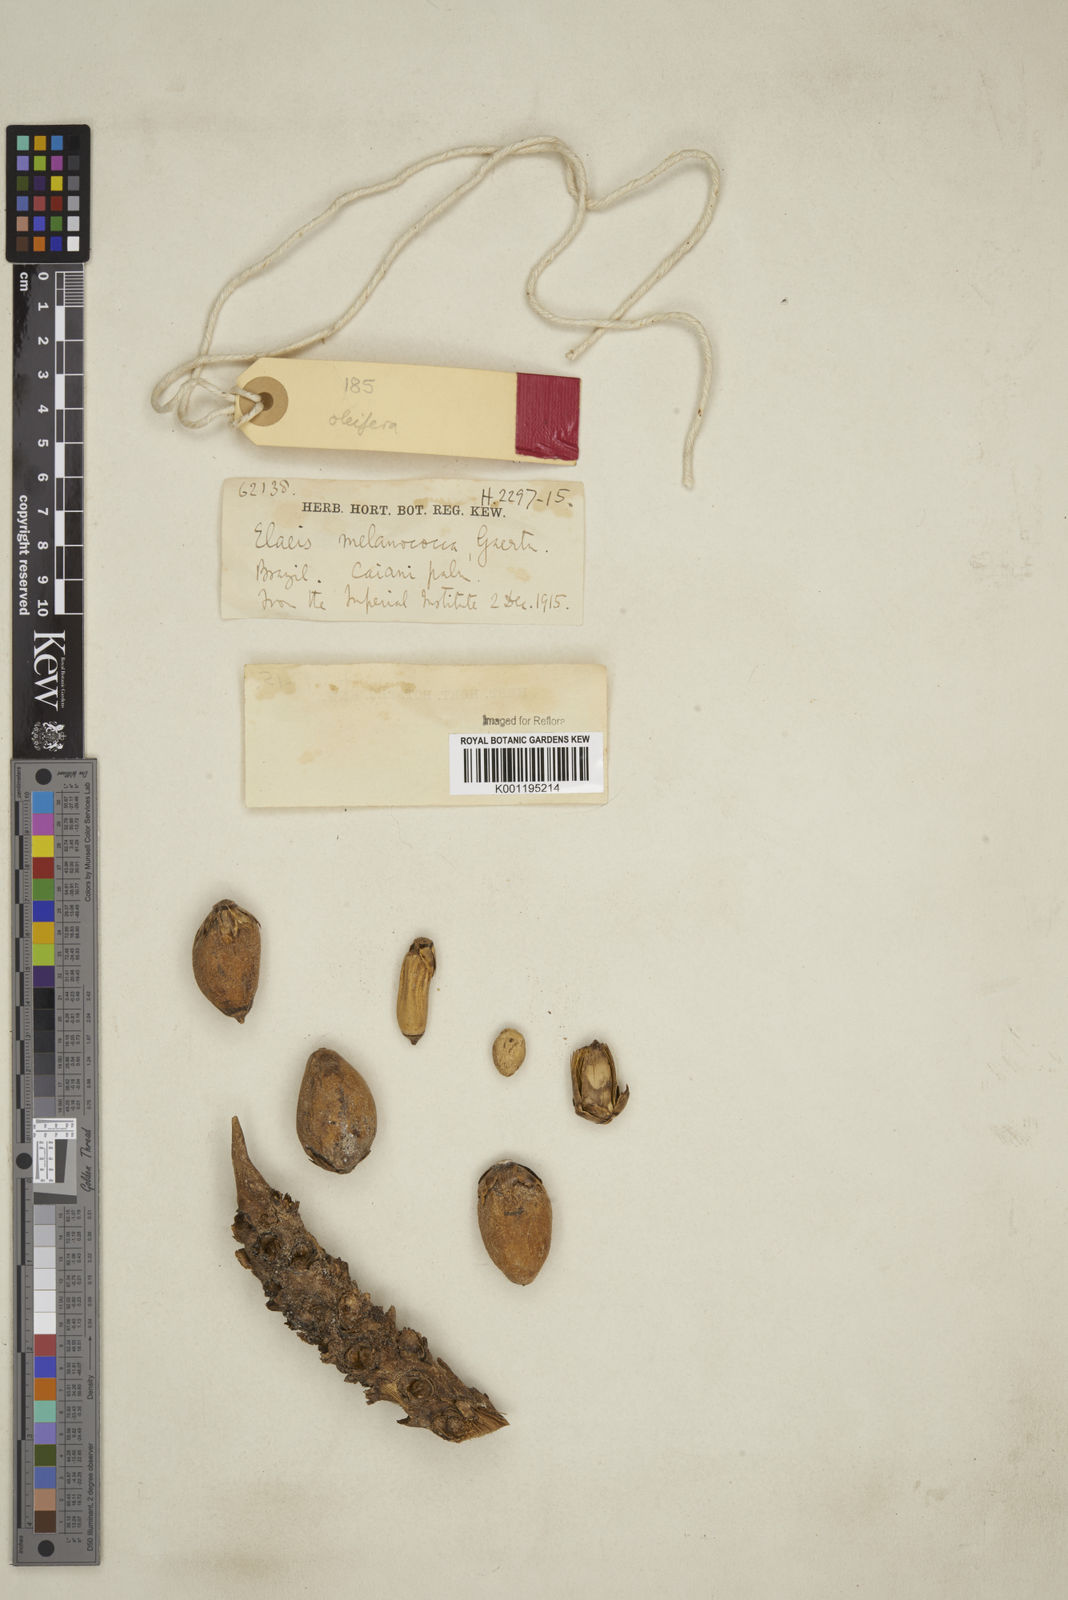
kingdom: Plantae
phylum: Tracheophyta
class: Liliopsida
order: Arecales
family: Arecaceae
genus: Elaeis
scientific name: Elaeis guineensis
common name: Oil palm
